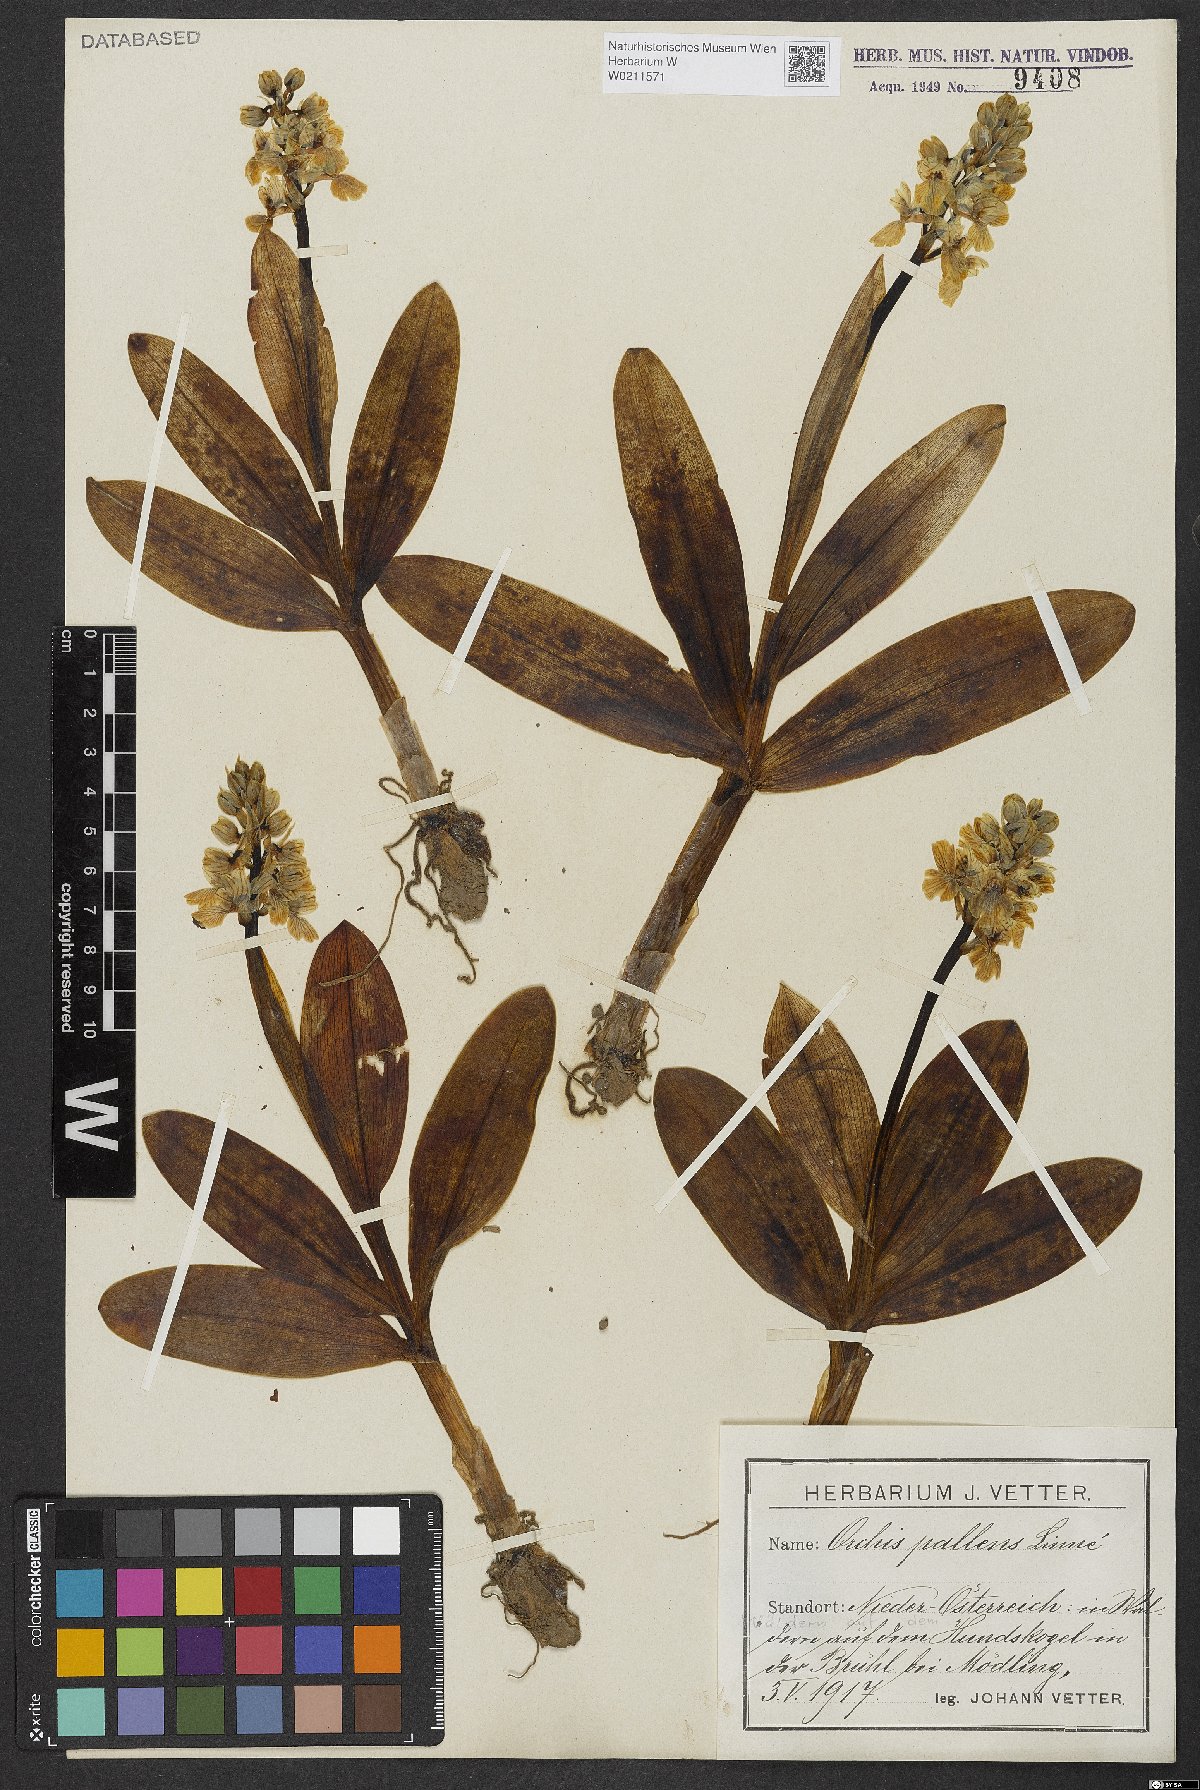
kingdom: Plantae
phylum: Tracheophyta
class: Liliopsida
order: Asparagales
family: Orchidaceae
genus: Orchis
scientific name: Orchis pallens
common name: Pale-flowered orchid
